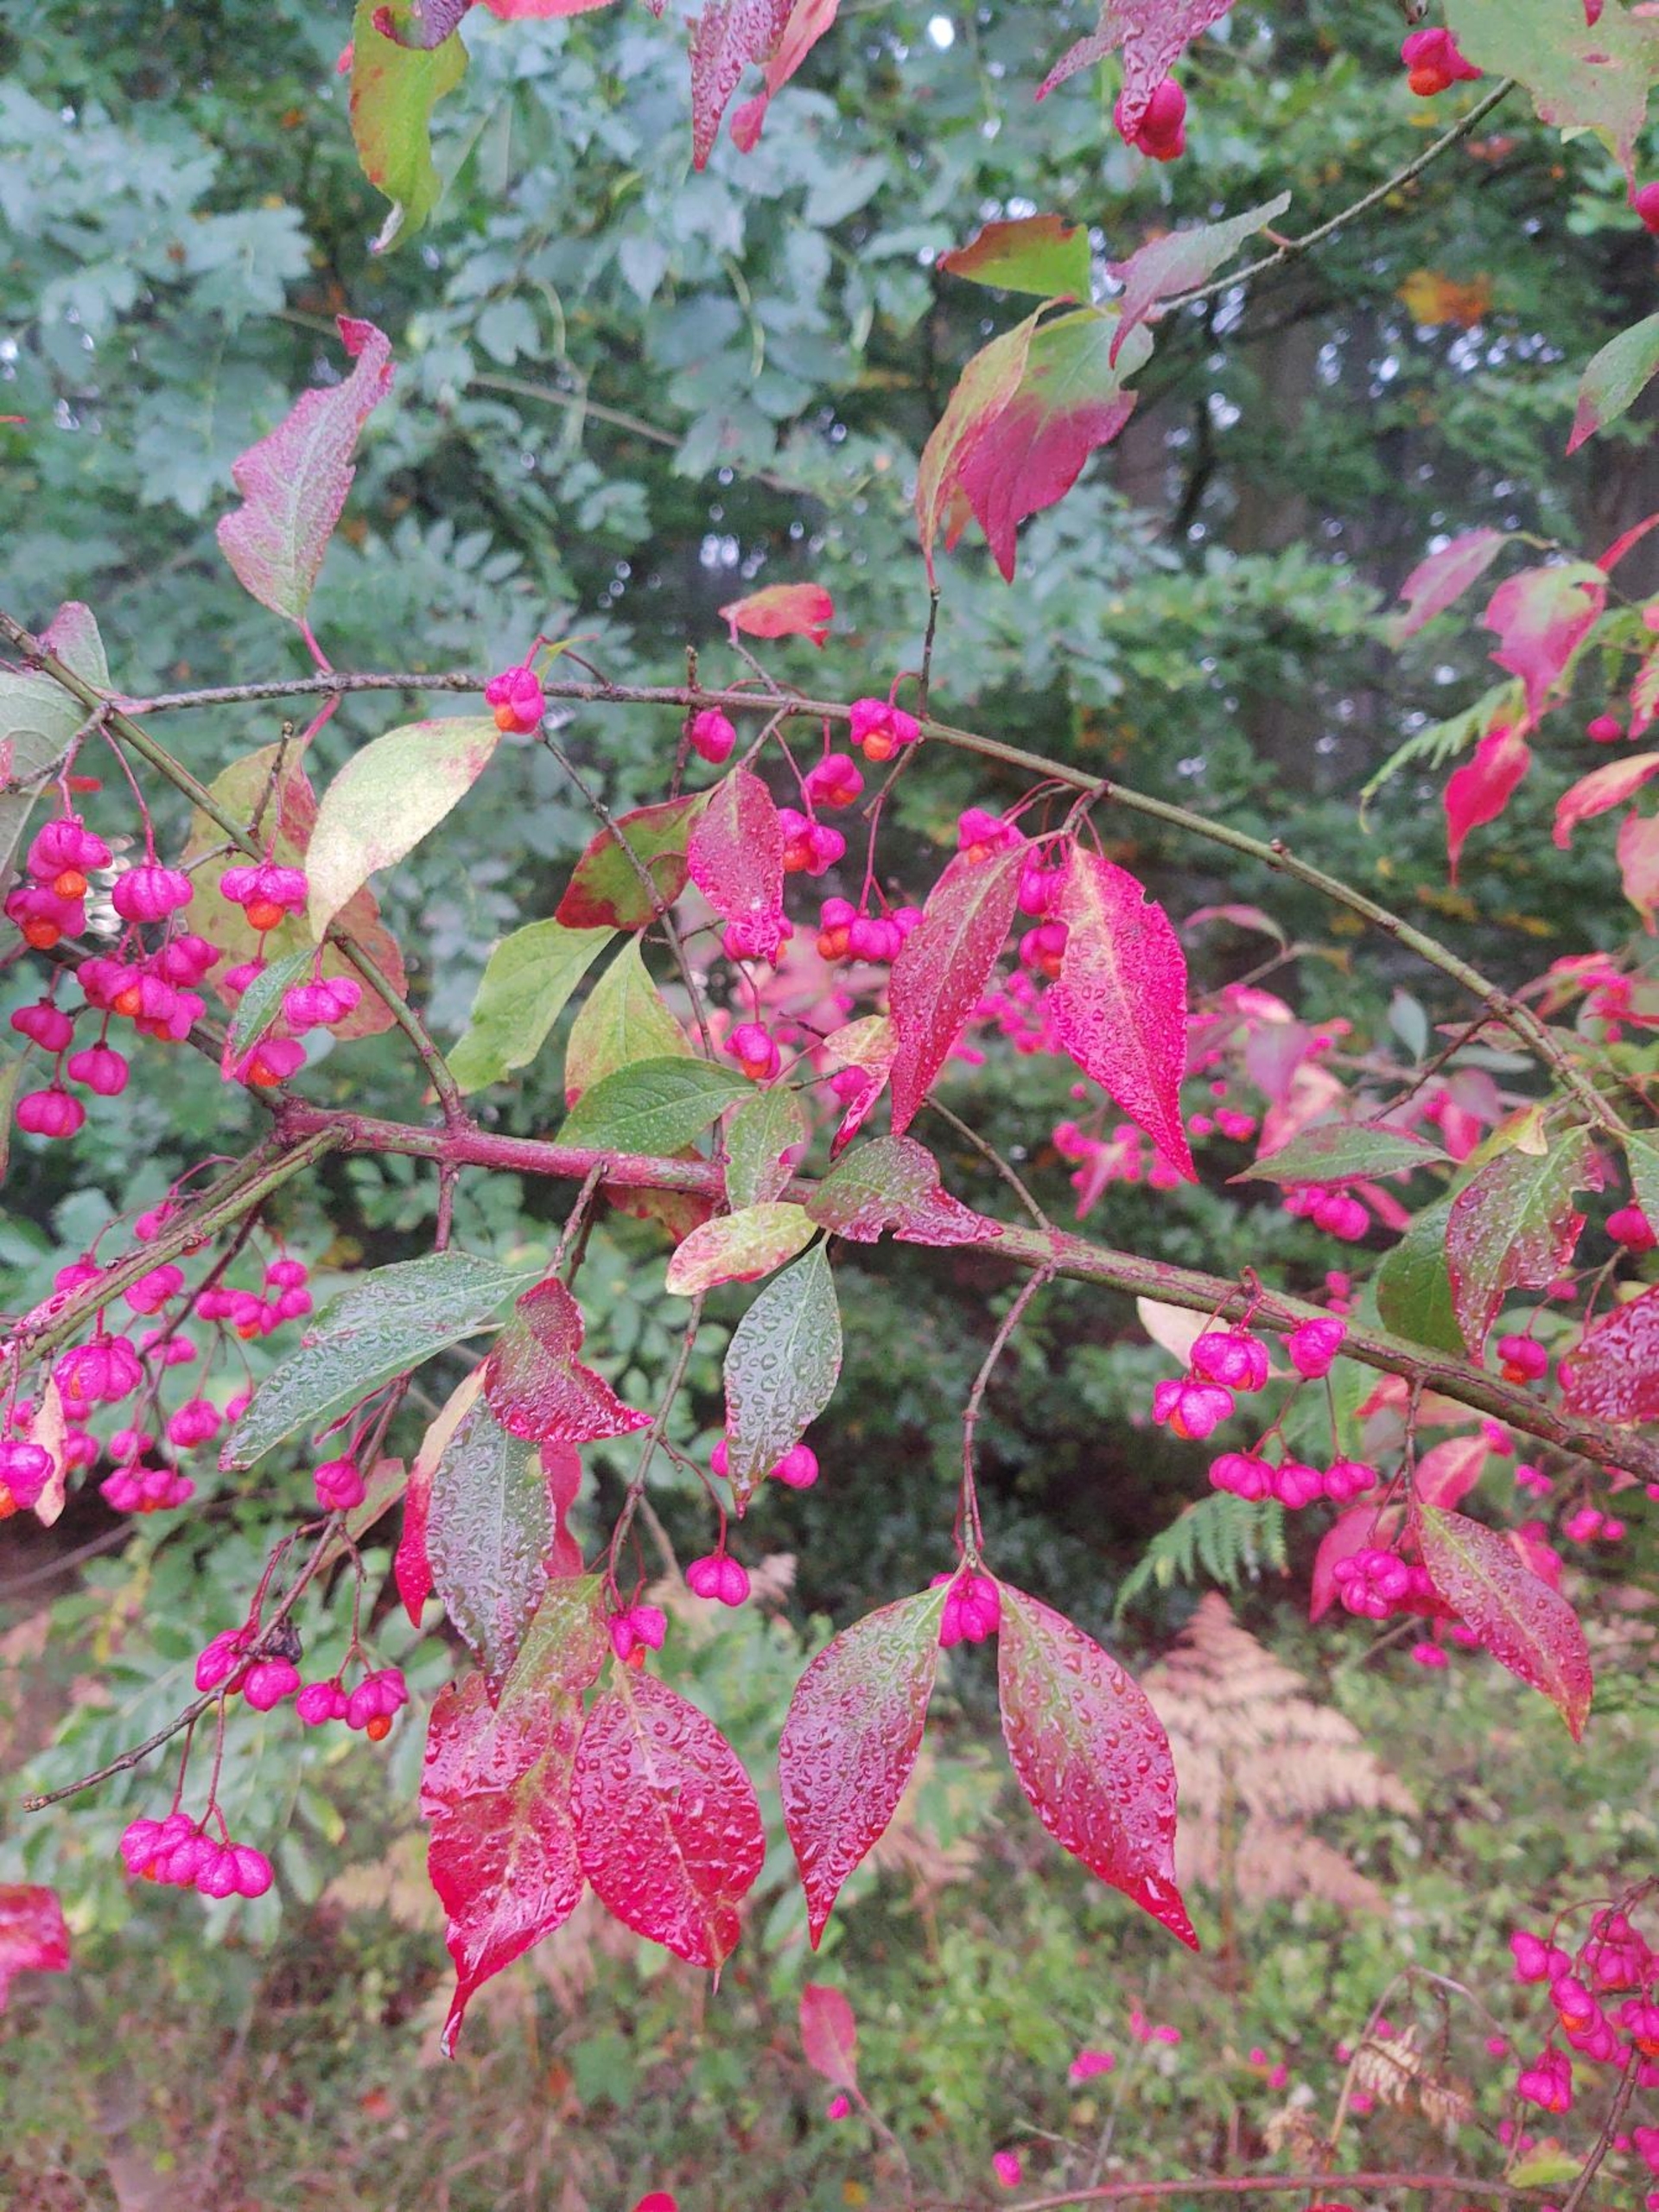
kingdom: Plantae
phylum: Tracheophyta
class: Magnoliopsida
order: Celastrales
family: Celastraceae
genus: Euonymus
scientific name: Euonymus europaeus
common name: Benved
